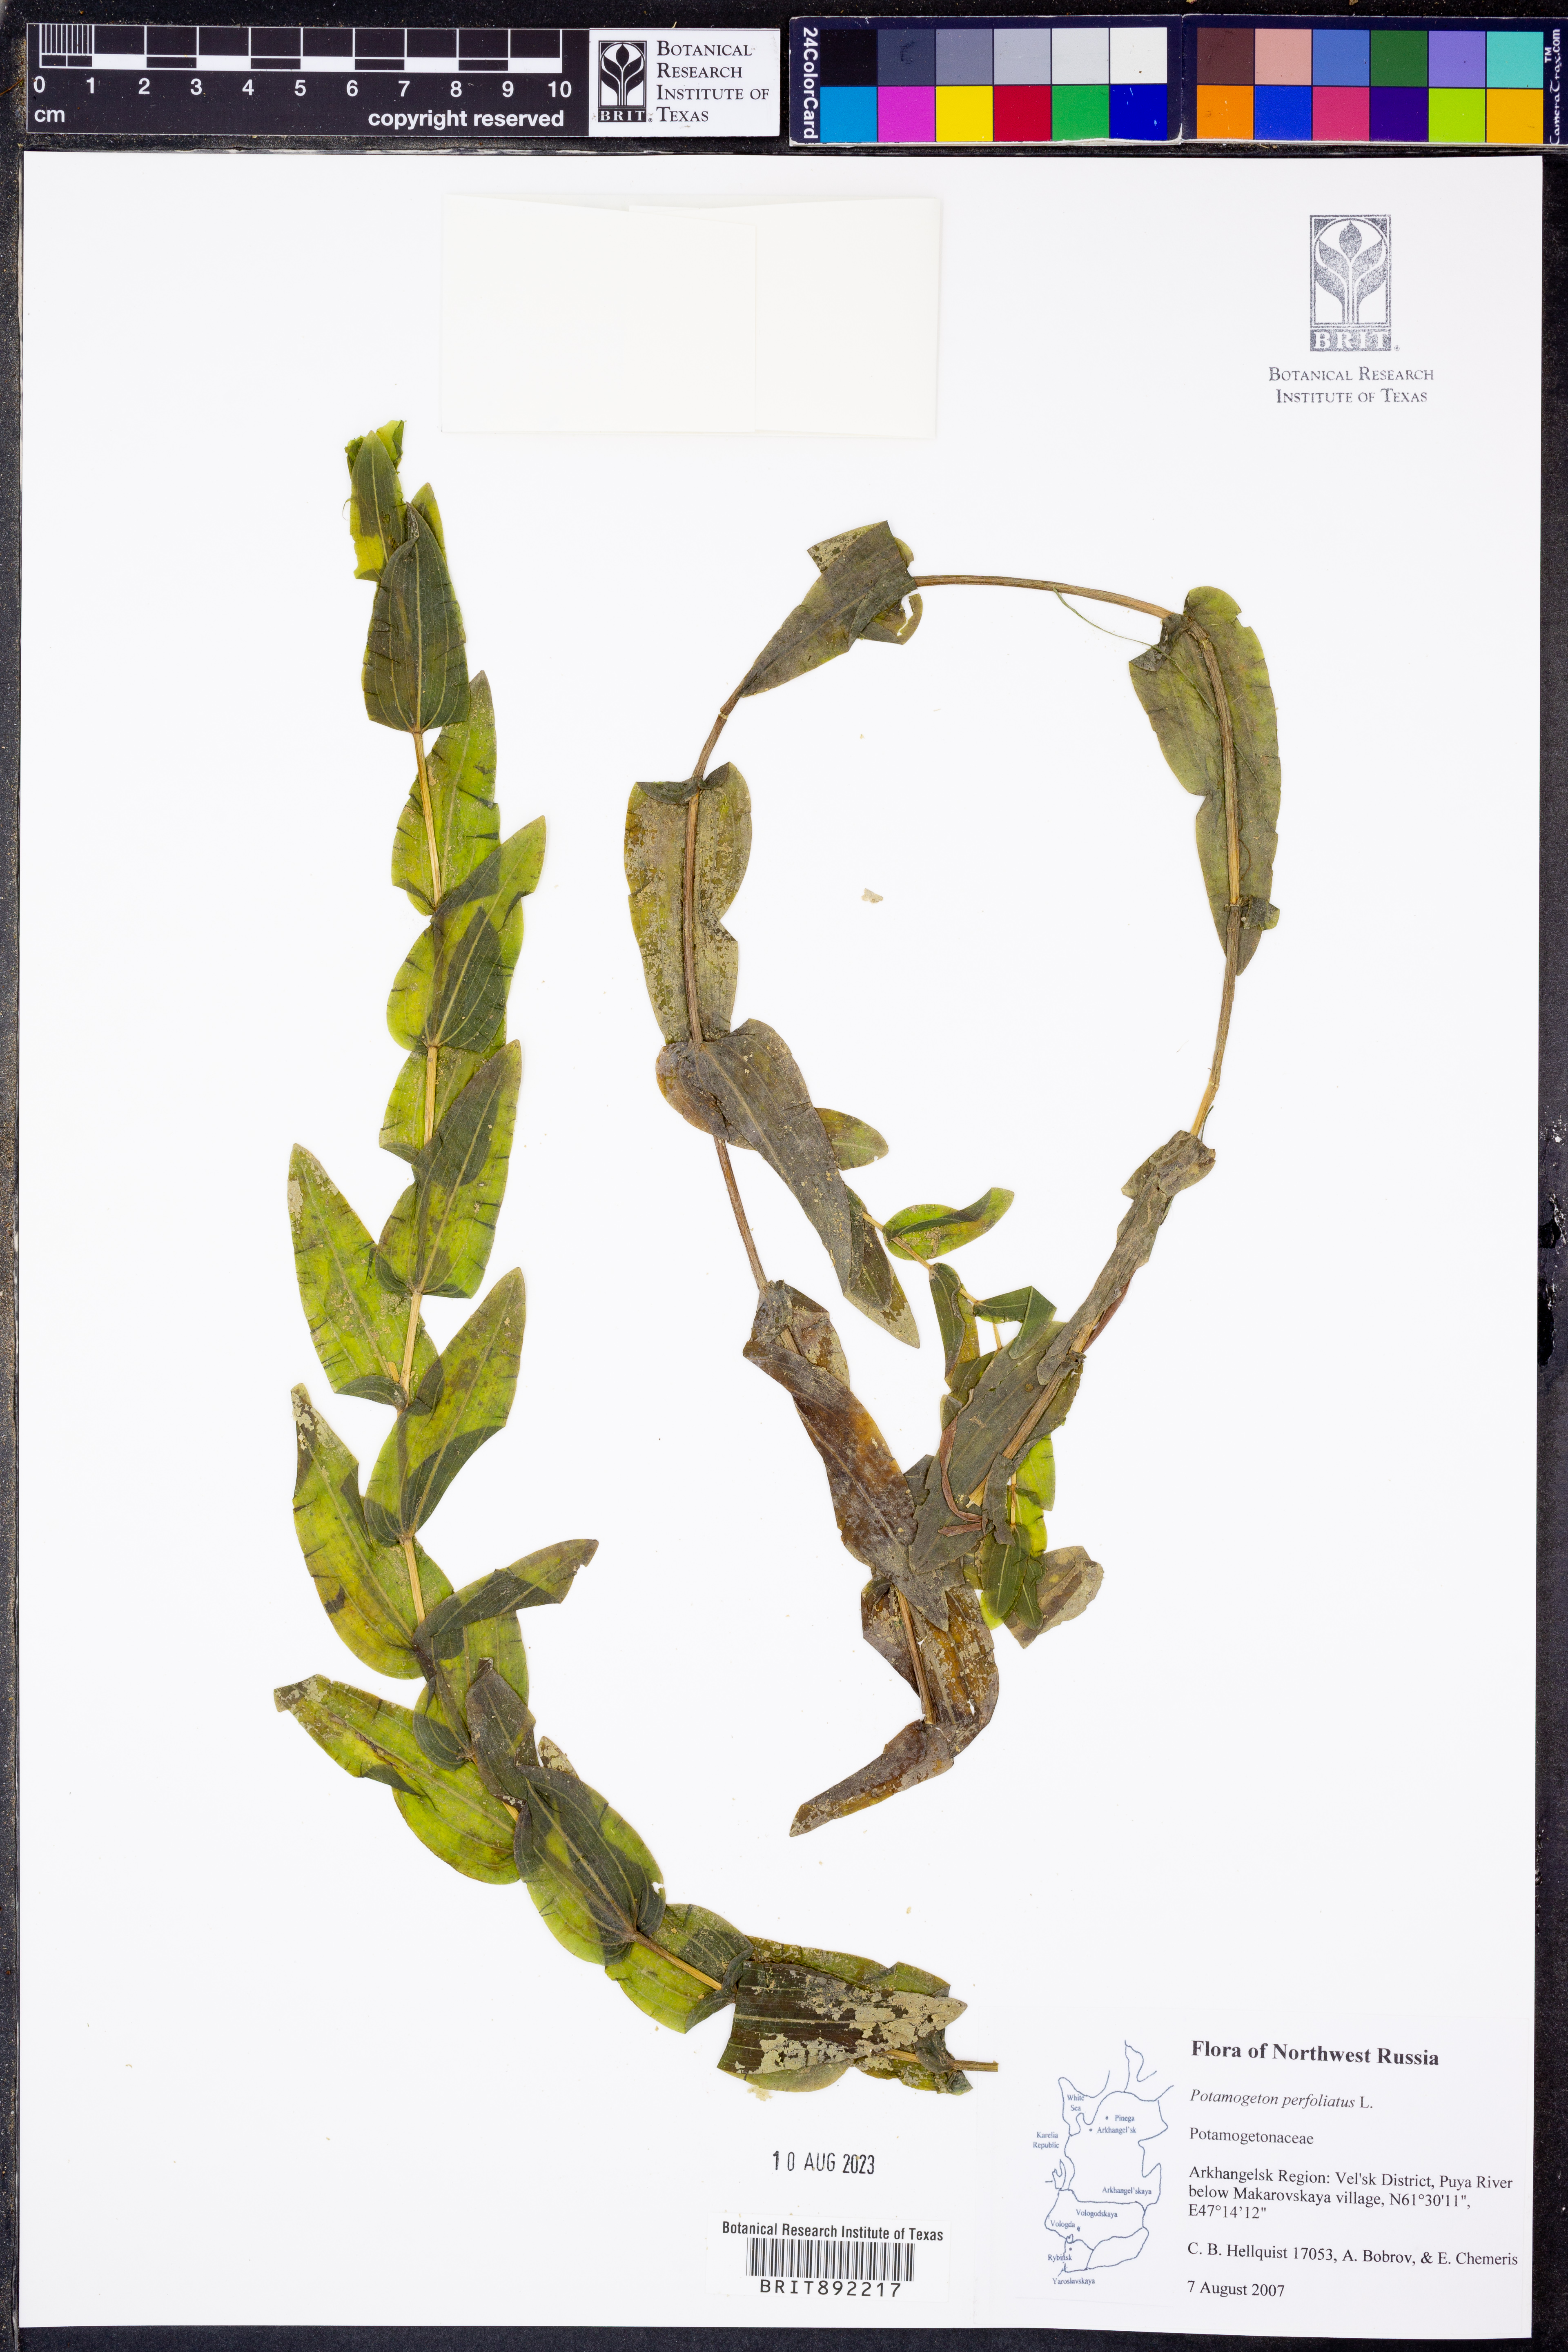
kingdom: Plantae
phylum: Tracheophyta
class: Liliopsida
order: Alismatales
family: Potamogetonaceae
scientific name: Potamogetonaceae
